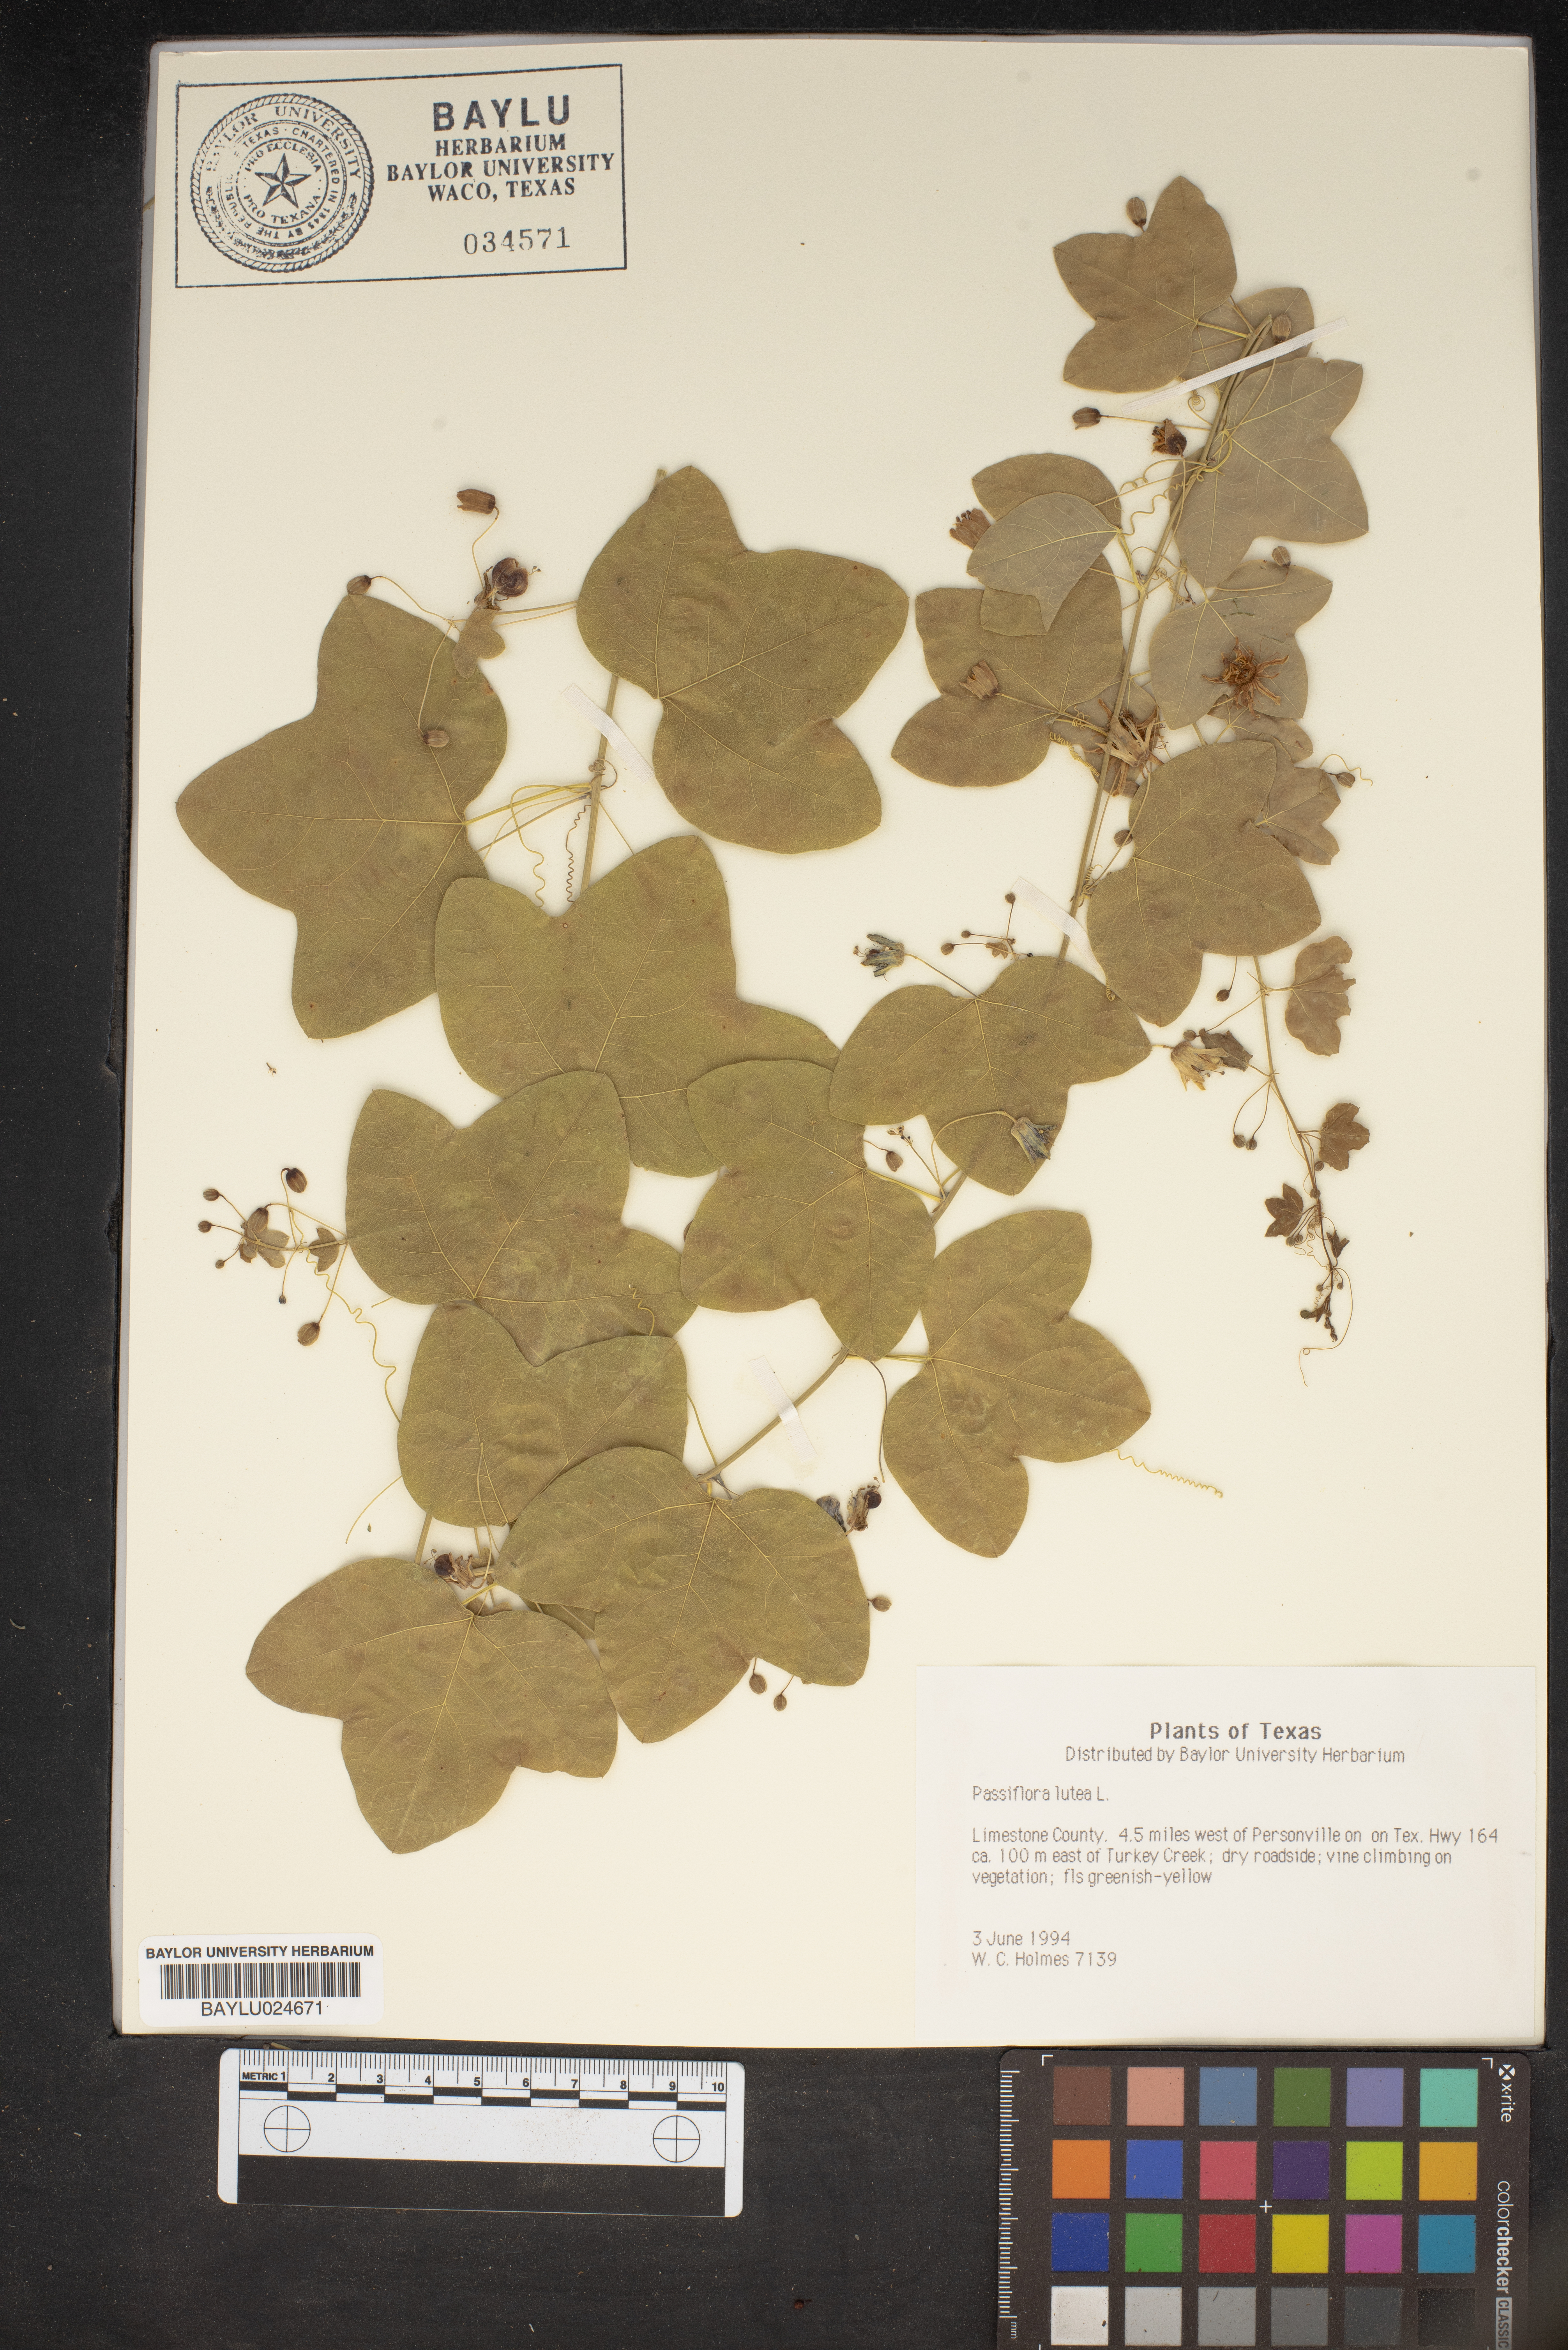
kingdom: Plantae
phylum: Tracheophyta
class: Magnoliopsida
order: Malpighiales
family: Passifloraceae
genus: Passiflora
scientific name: Passiflora lutea
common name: Yellow passionflower
